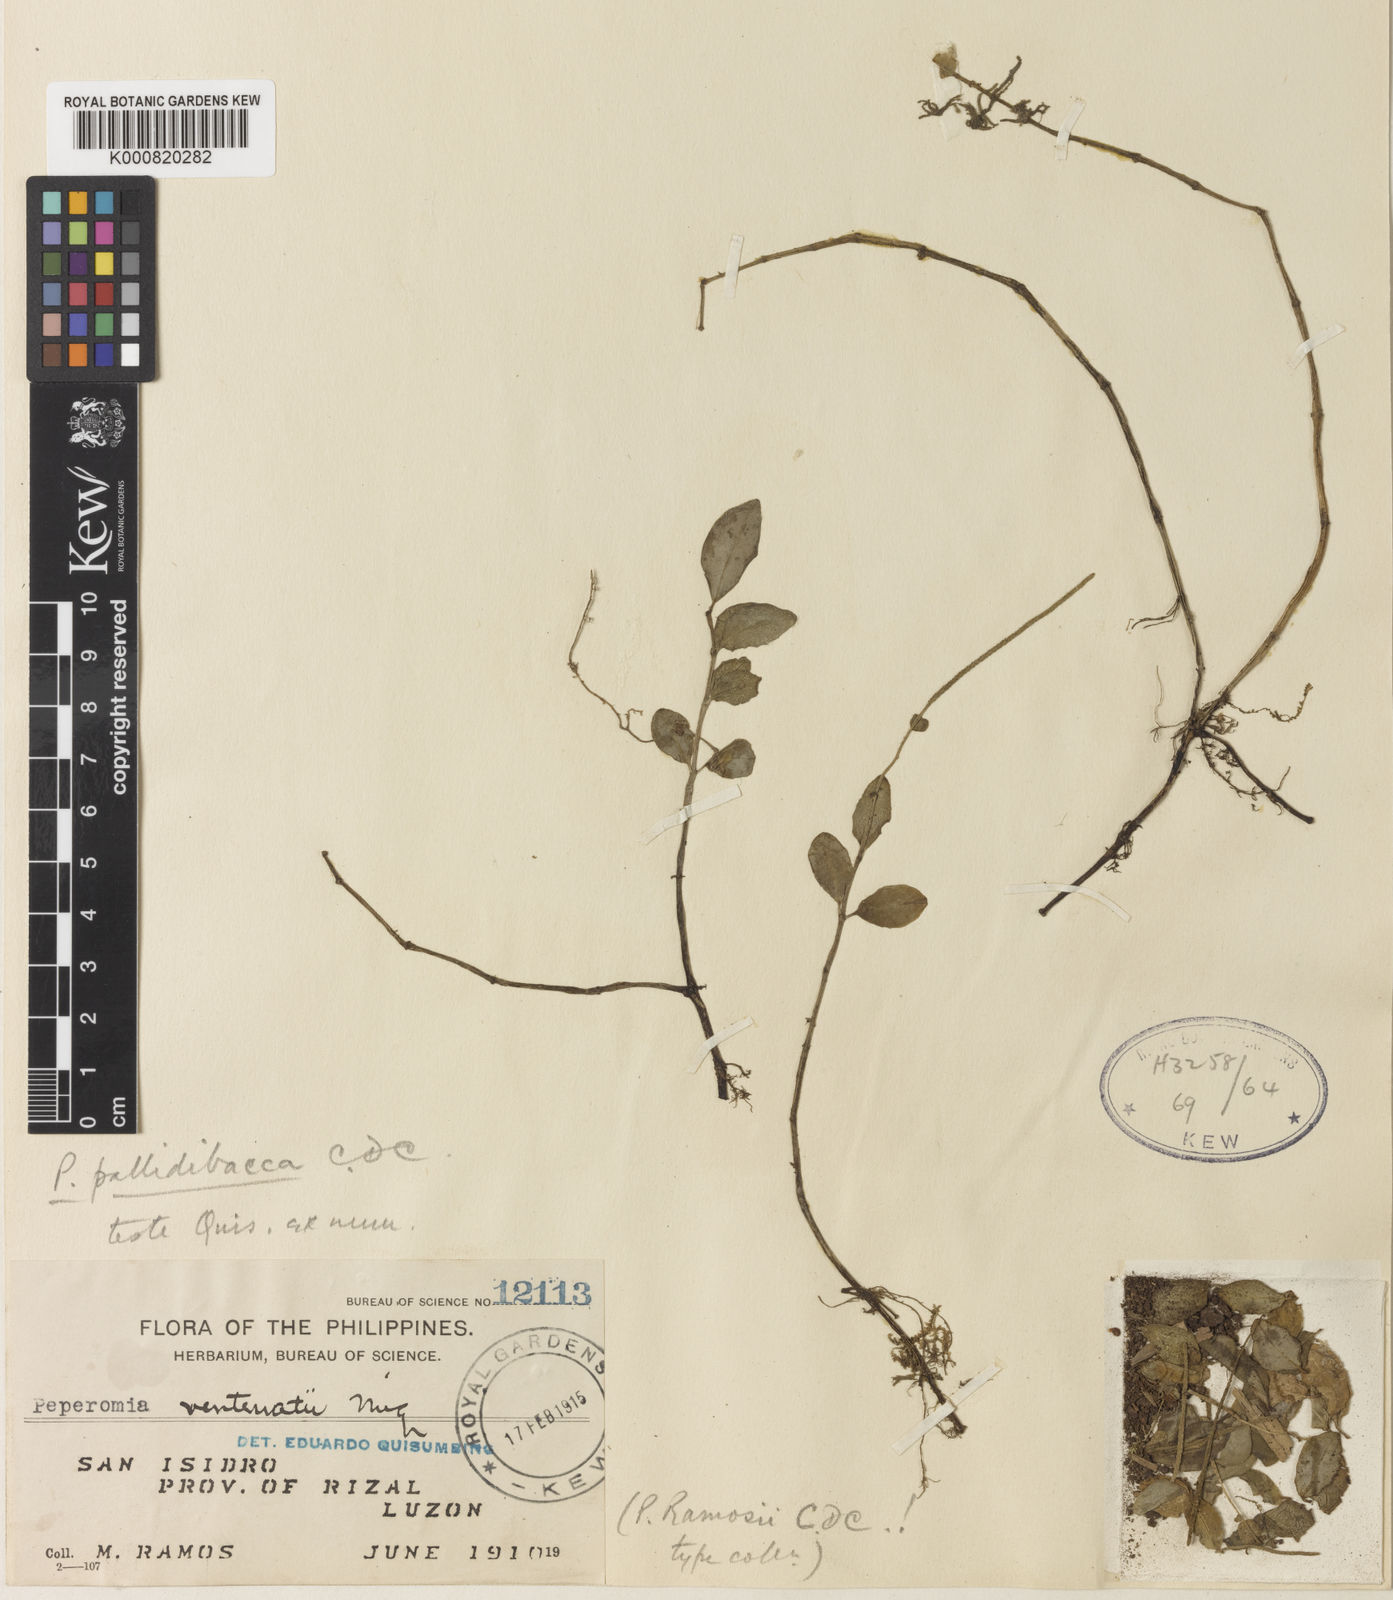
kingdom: Plantae
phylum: Tracheophyta
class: Magnoliopsida
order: Piperales
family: Piperaceae
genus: Peperomia
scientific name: Peperomia pallidibacca
